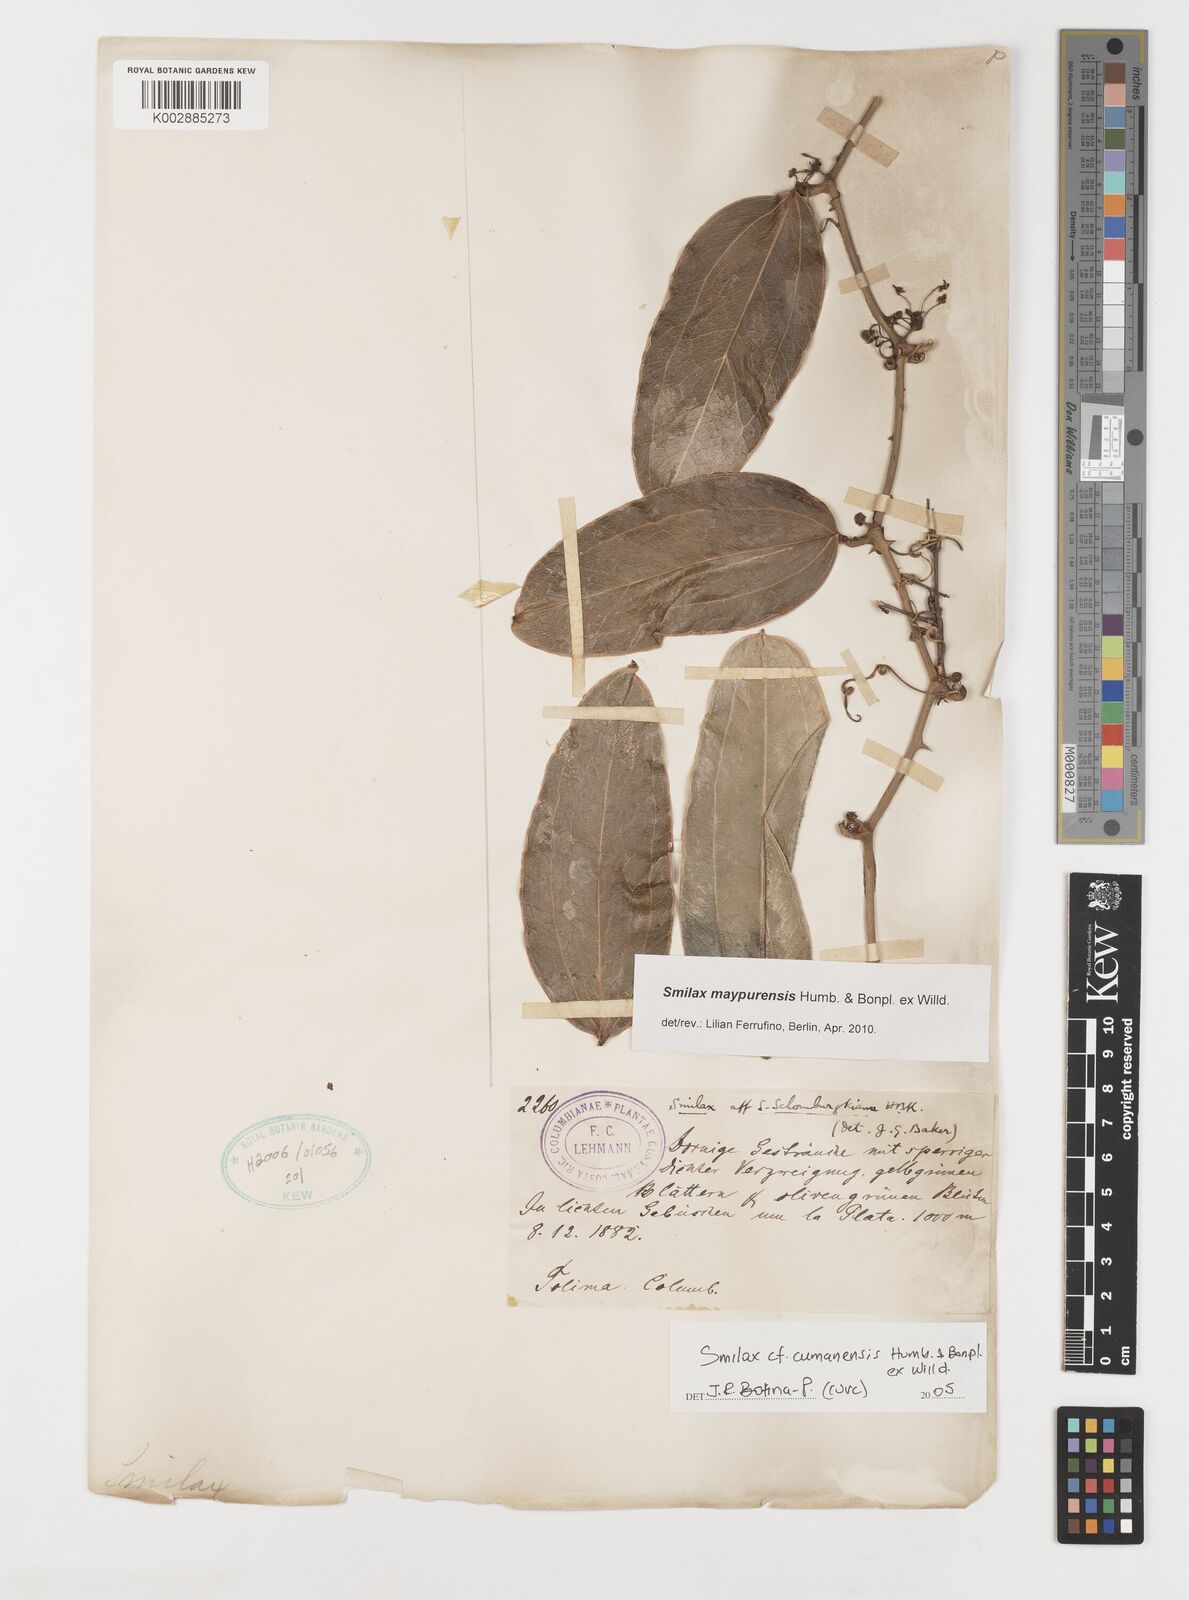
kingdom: Plantae
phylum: Tracheophyta
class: Liliopsida
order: Liliales
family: Smilacaceae
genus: Smilax
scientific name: Smilax maypurensis
